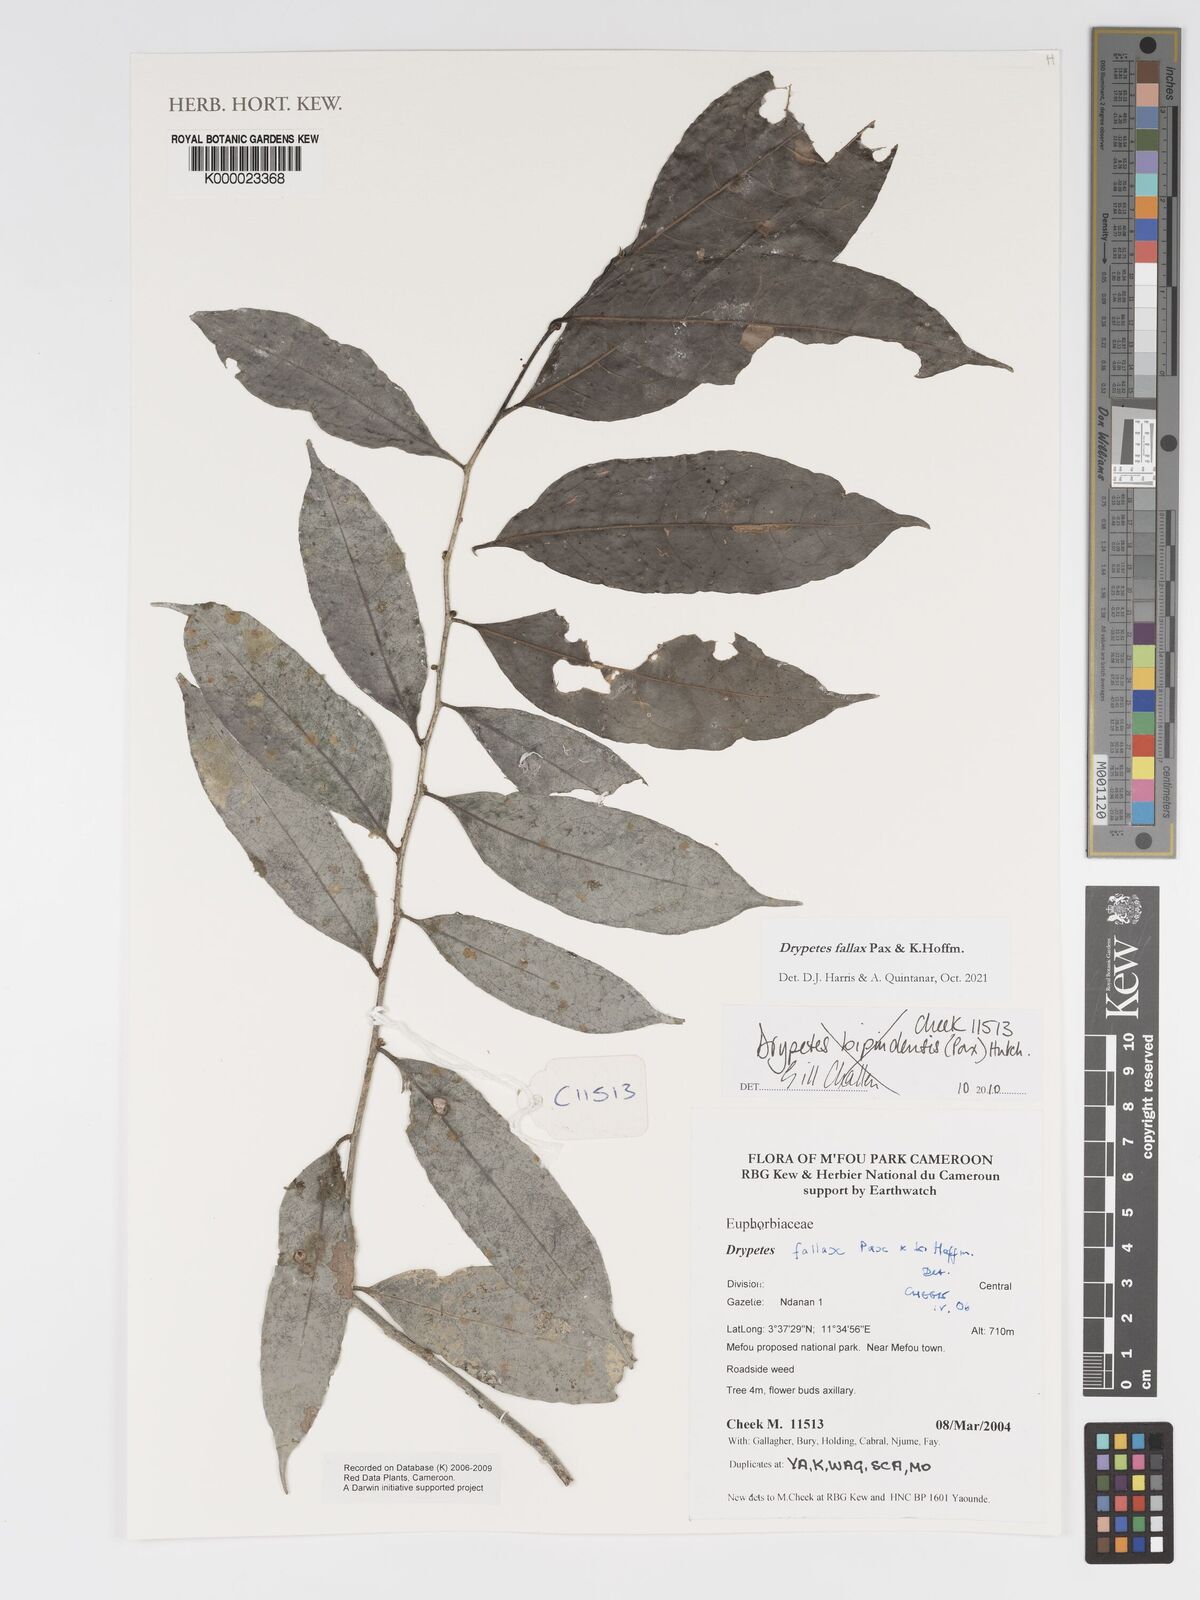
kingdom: Plantae
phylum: Tracheophyta
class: Magnoliopsida
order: Malpighiales
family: Putranjivaceae
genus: Drypetes
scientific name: Drypetes bipindensis
